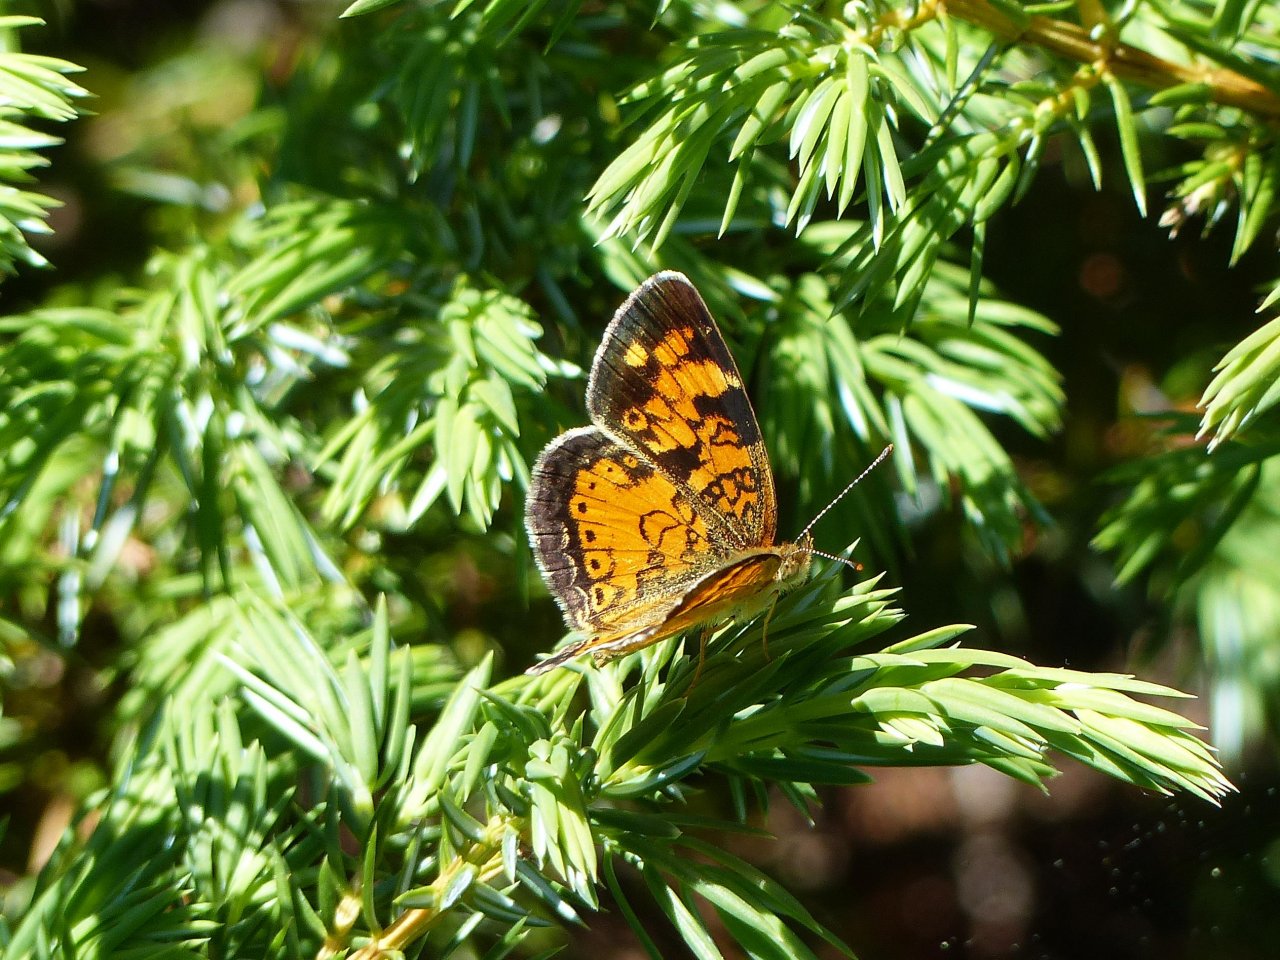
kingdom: Animalia
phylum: Arthropoda
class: Insecta
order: Lepidoptera
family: Nymphalidae
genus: Phyciodes
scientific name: Phyciodes tharos
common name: Northern Crescent
